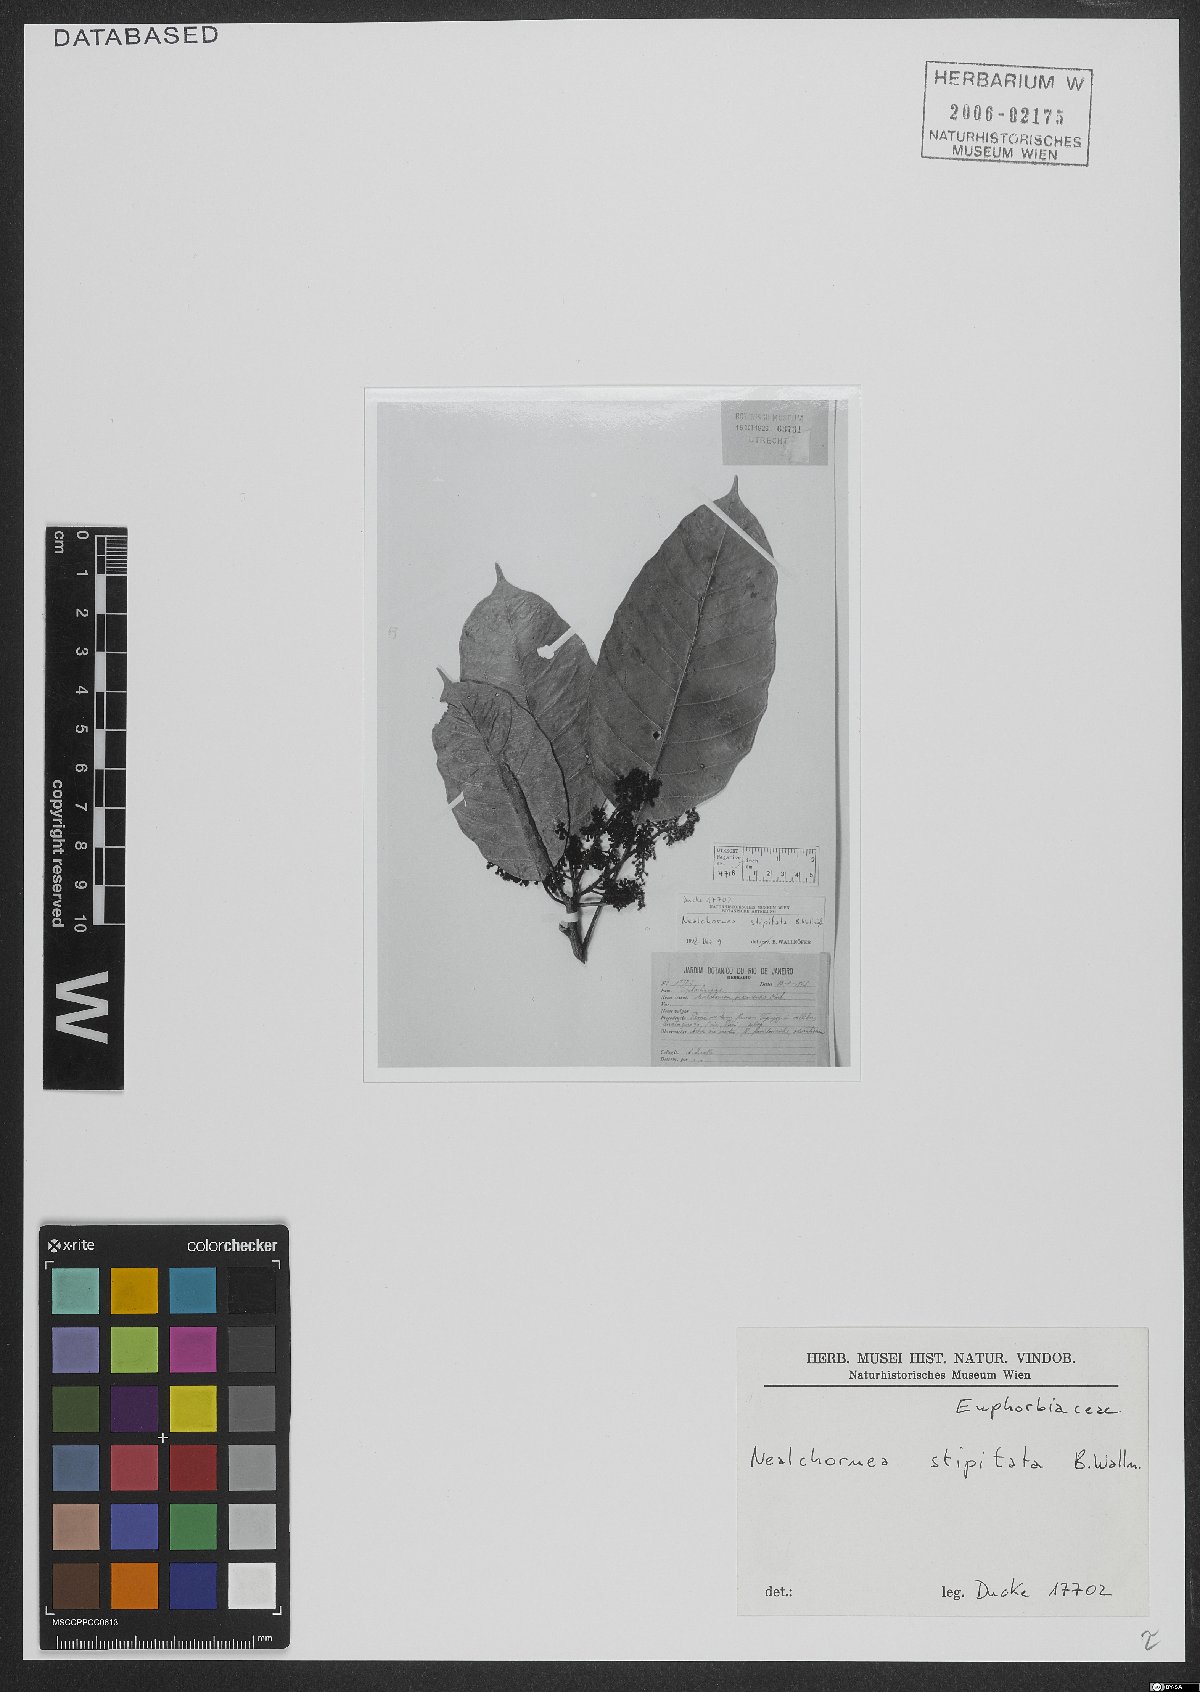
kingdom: Plantae
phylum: Tracheophyta
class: Magnoliopsida
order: Malpighiales
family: Euphorbiaceae
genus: Nealchornea
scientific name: Nealchornea stipitata
